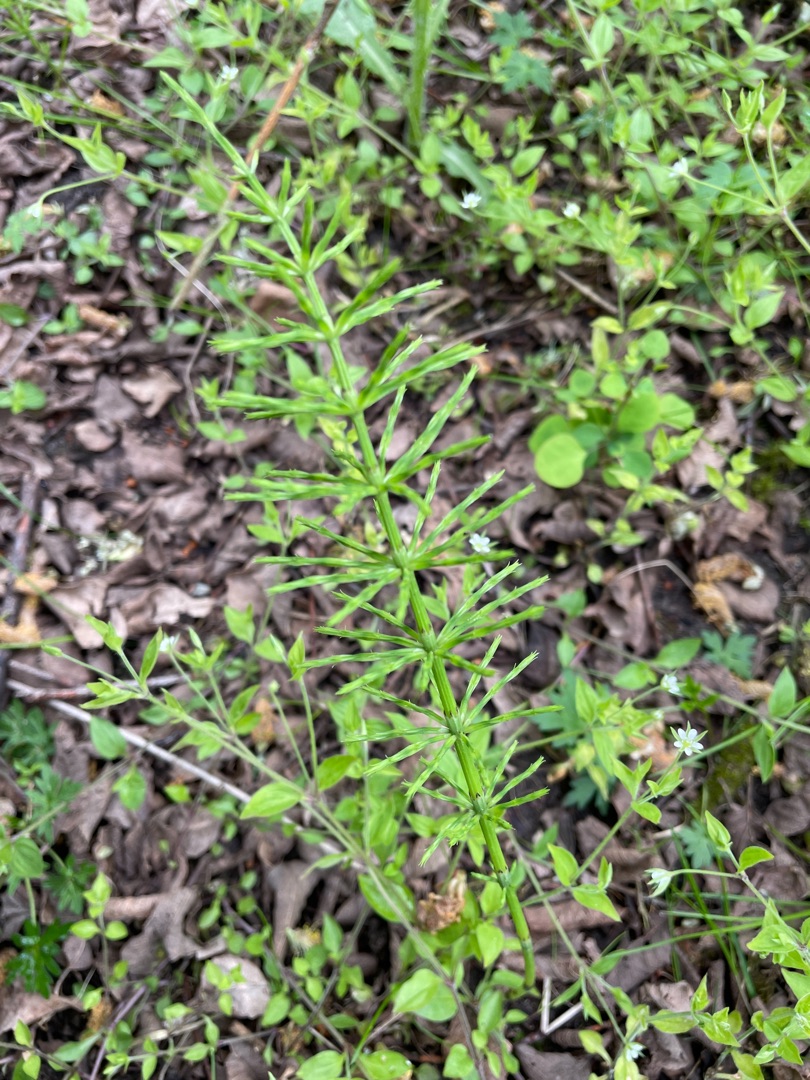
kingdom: Plantae
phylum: Tracheophyta
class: Polypodiopsida
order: Equisetales
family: Equisetaceae
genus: Equisetum
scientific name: Equisetum arvense
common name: Ager-padderok
